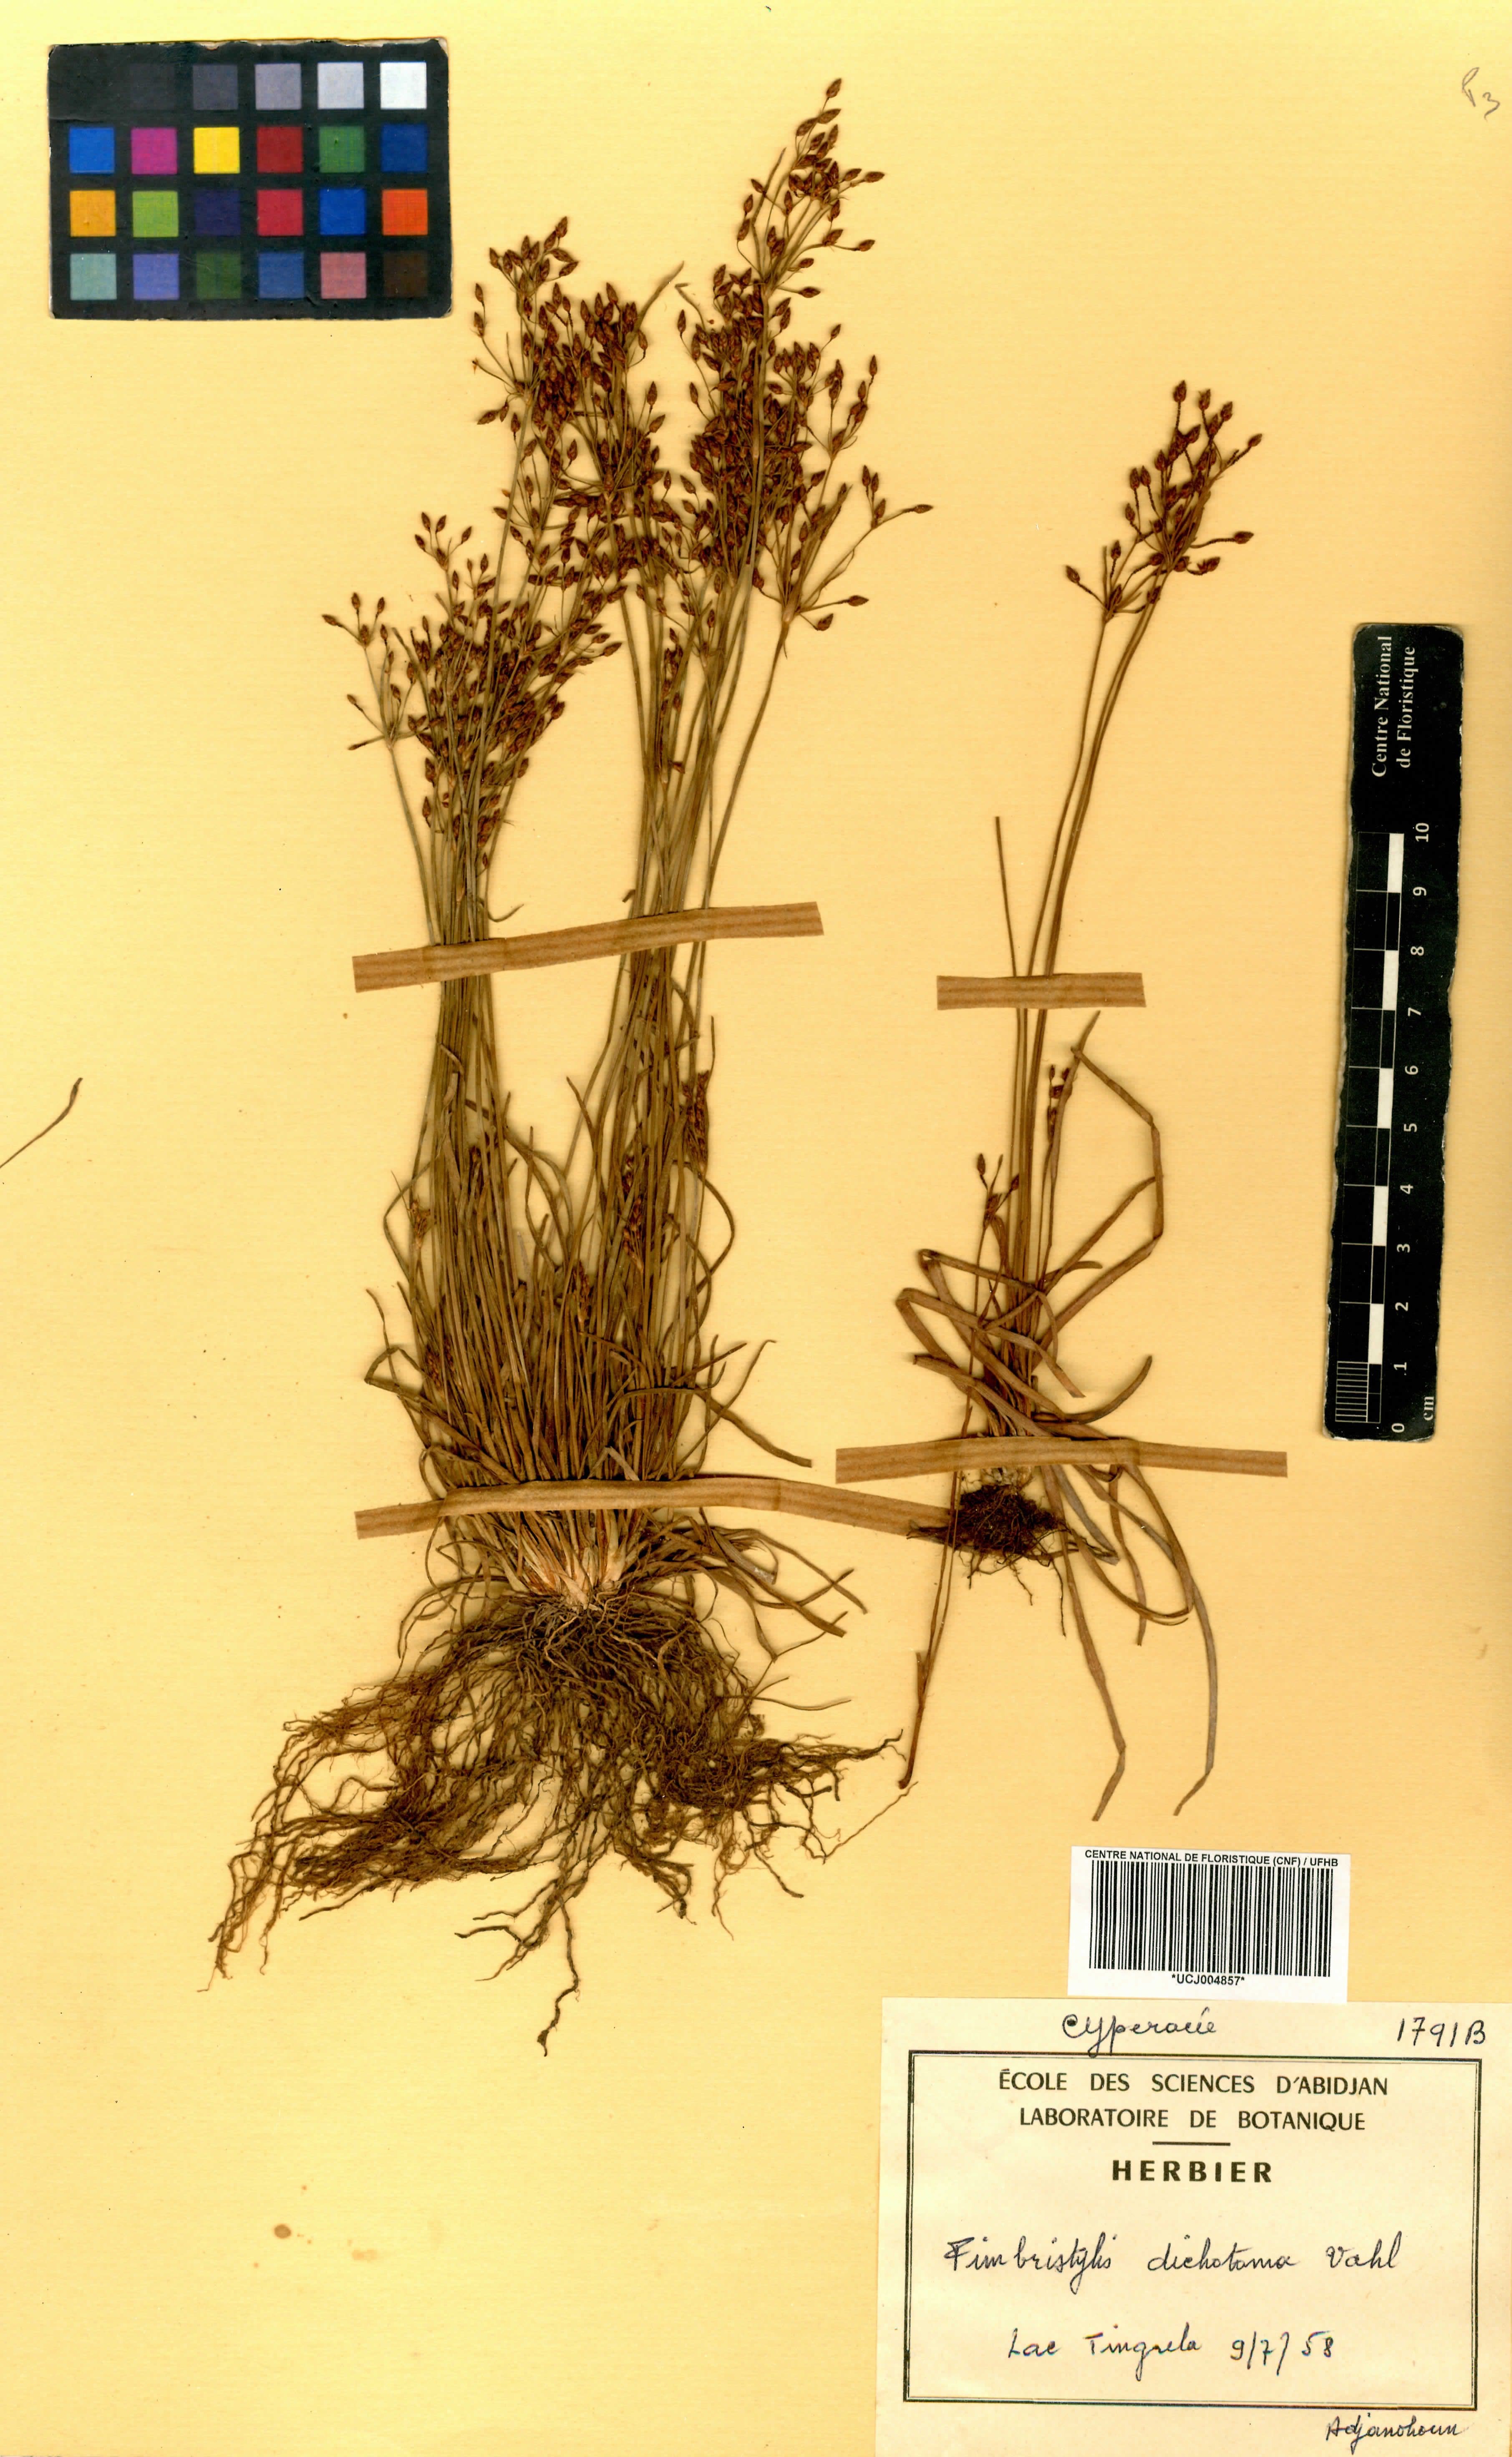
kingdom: Plantae
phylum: Tracheophyta
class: Liliopsida
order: Poales
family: Cyperaceae
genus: Fimbristylis
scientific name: Fimbristylis dichotoma
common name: Forked fimbry
